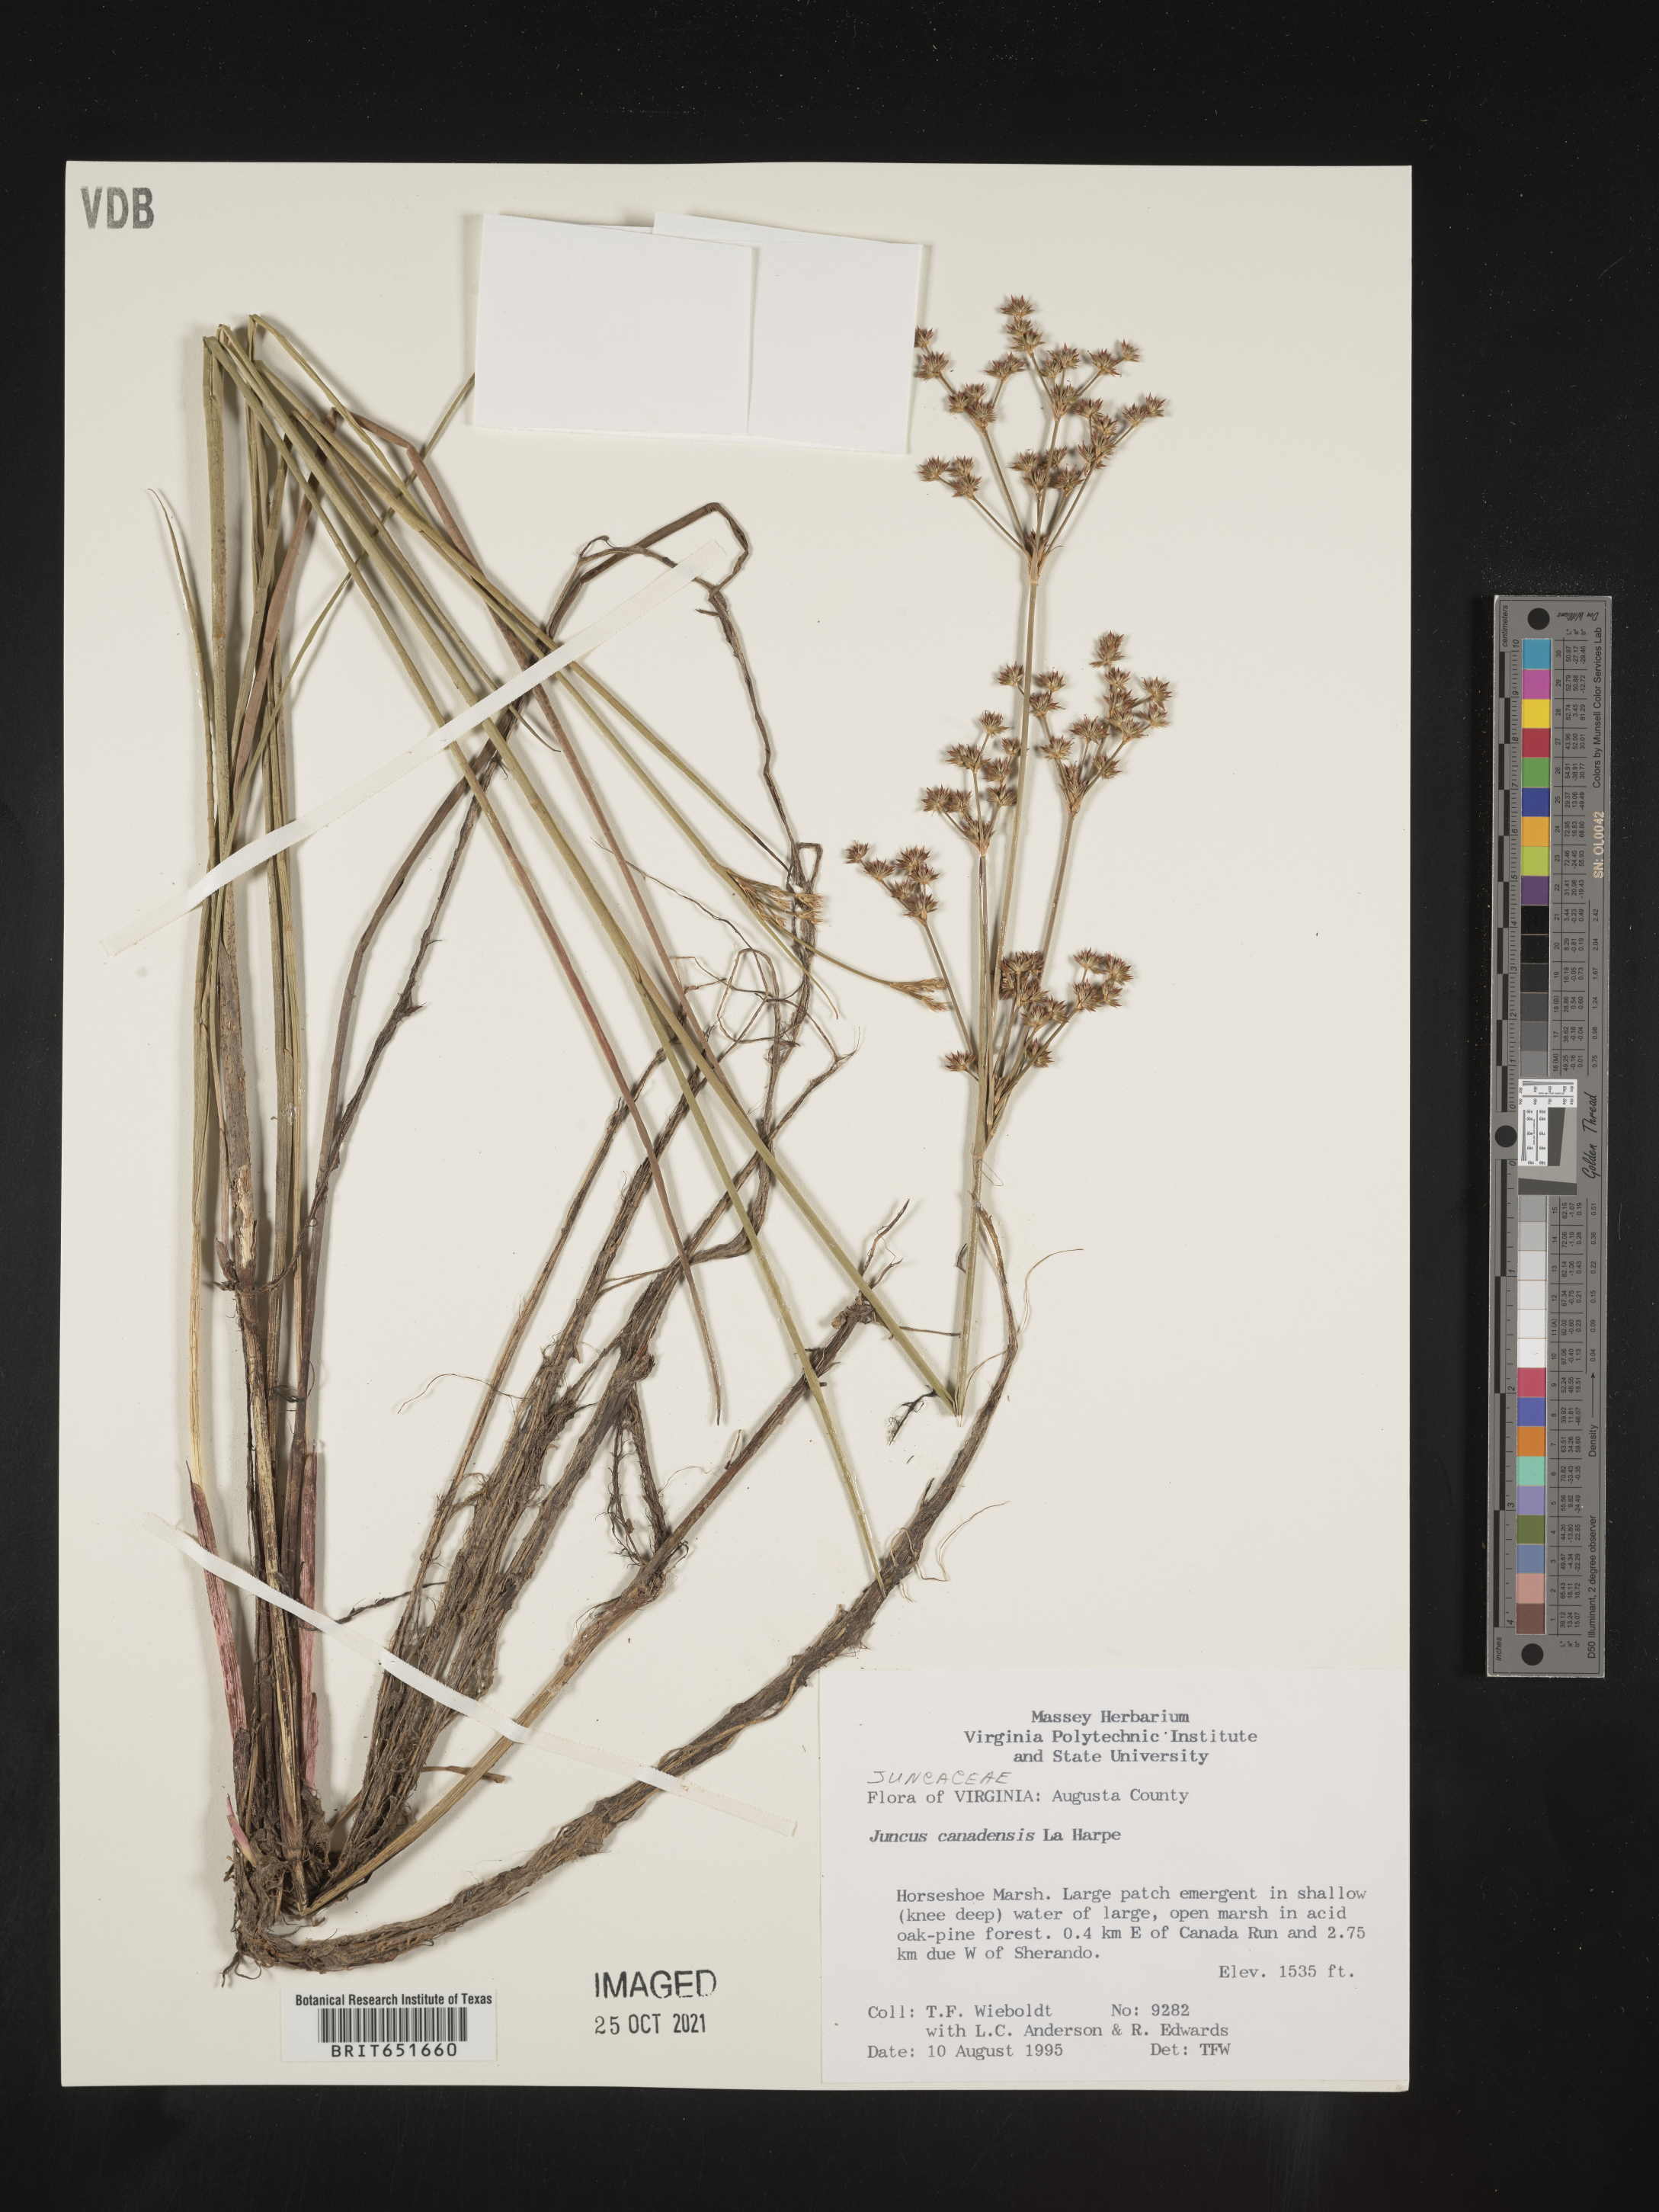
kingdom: Plantae
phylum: Tracheophyta
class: Liliopsida
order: Poales
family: Juncaceae
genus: Juncus
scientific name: Juncus canadensis
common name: Canada rush
